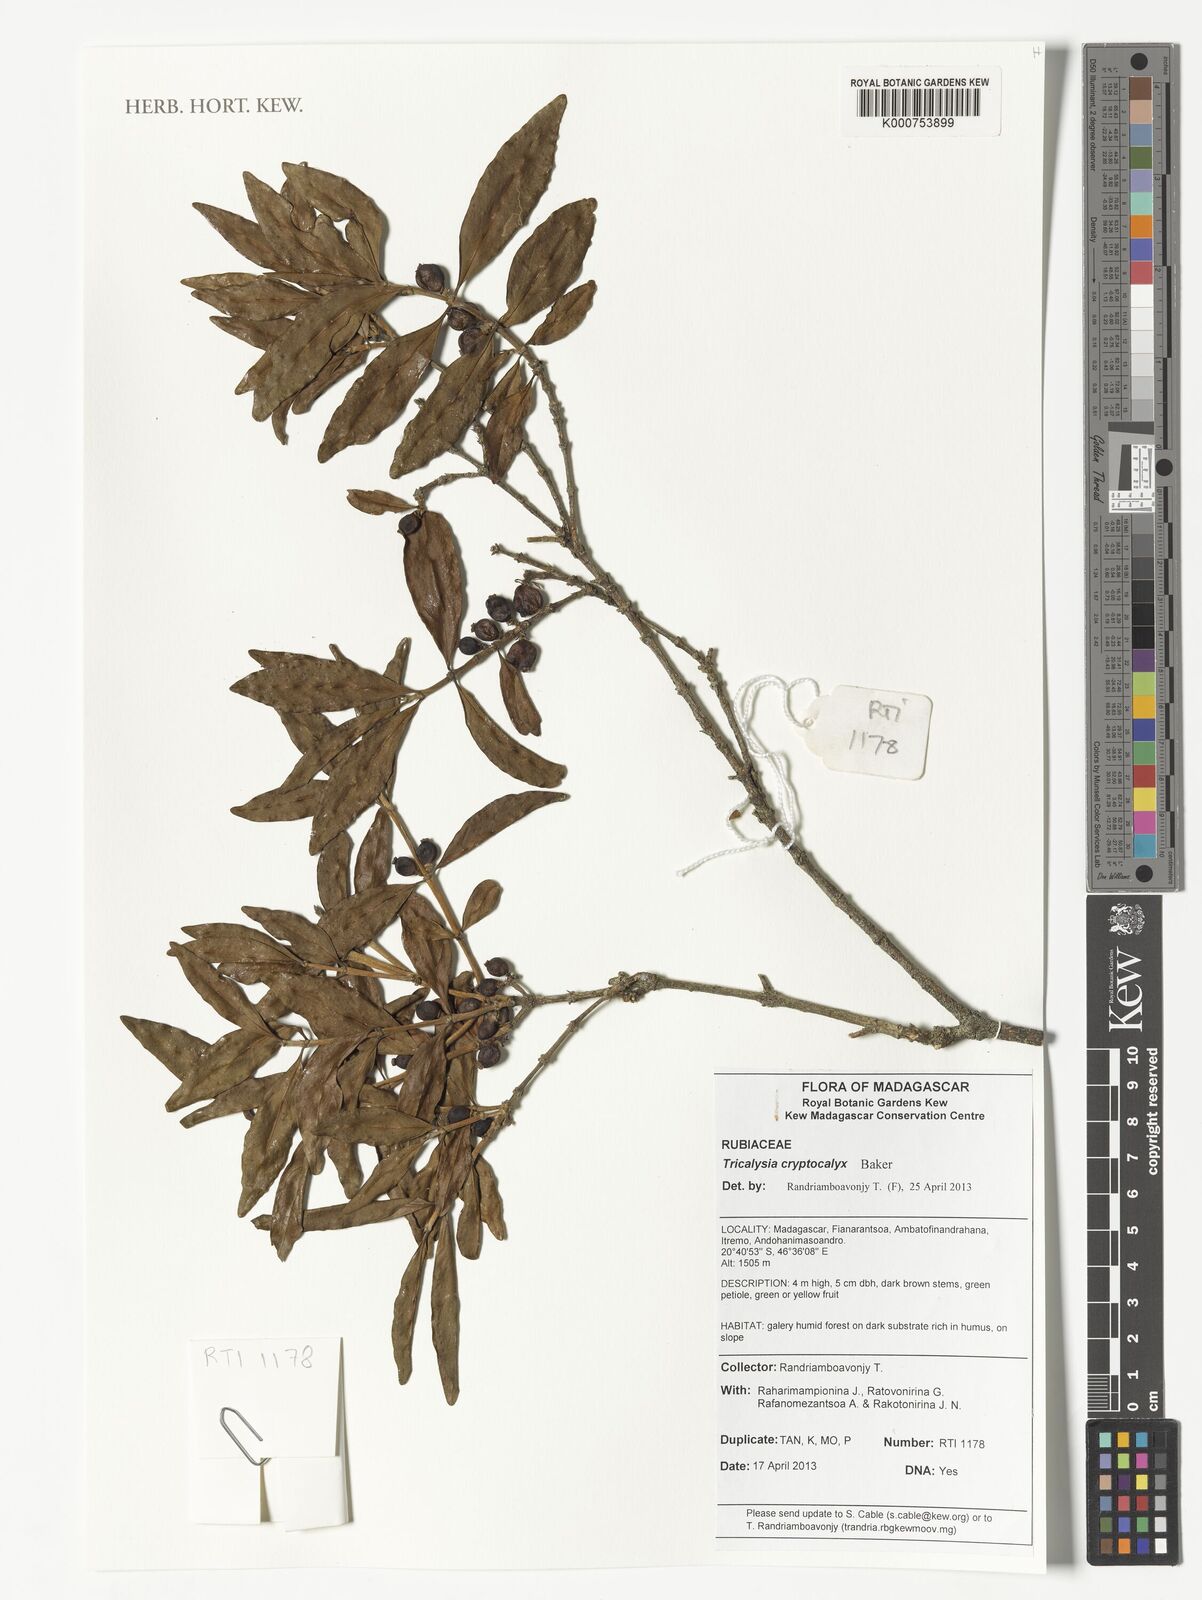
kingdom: Plantae
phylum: Tracheophyta
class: Magnoliopsida
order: Gentianales
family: Rubiaceae
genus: Tricalysia
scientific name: Tricalysia cryptocalyx
